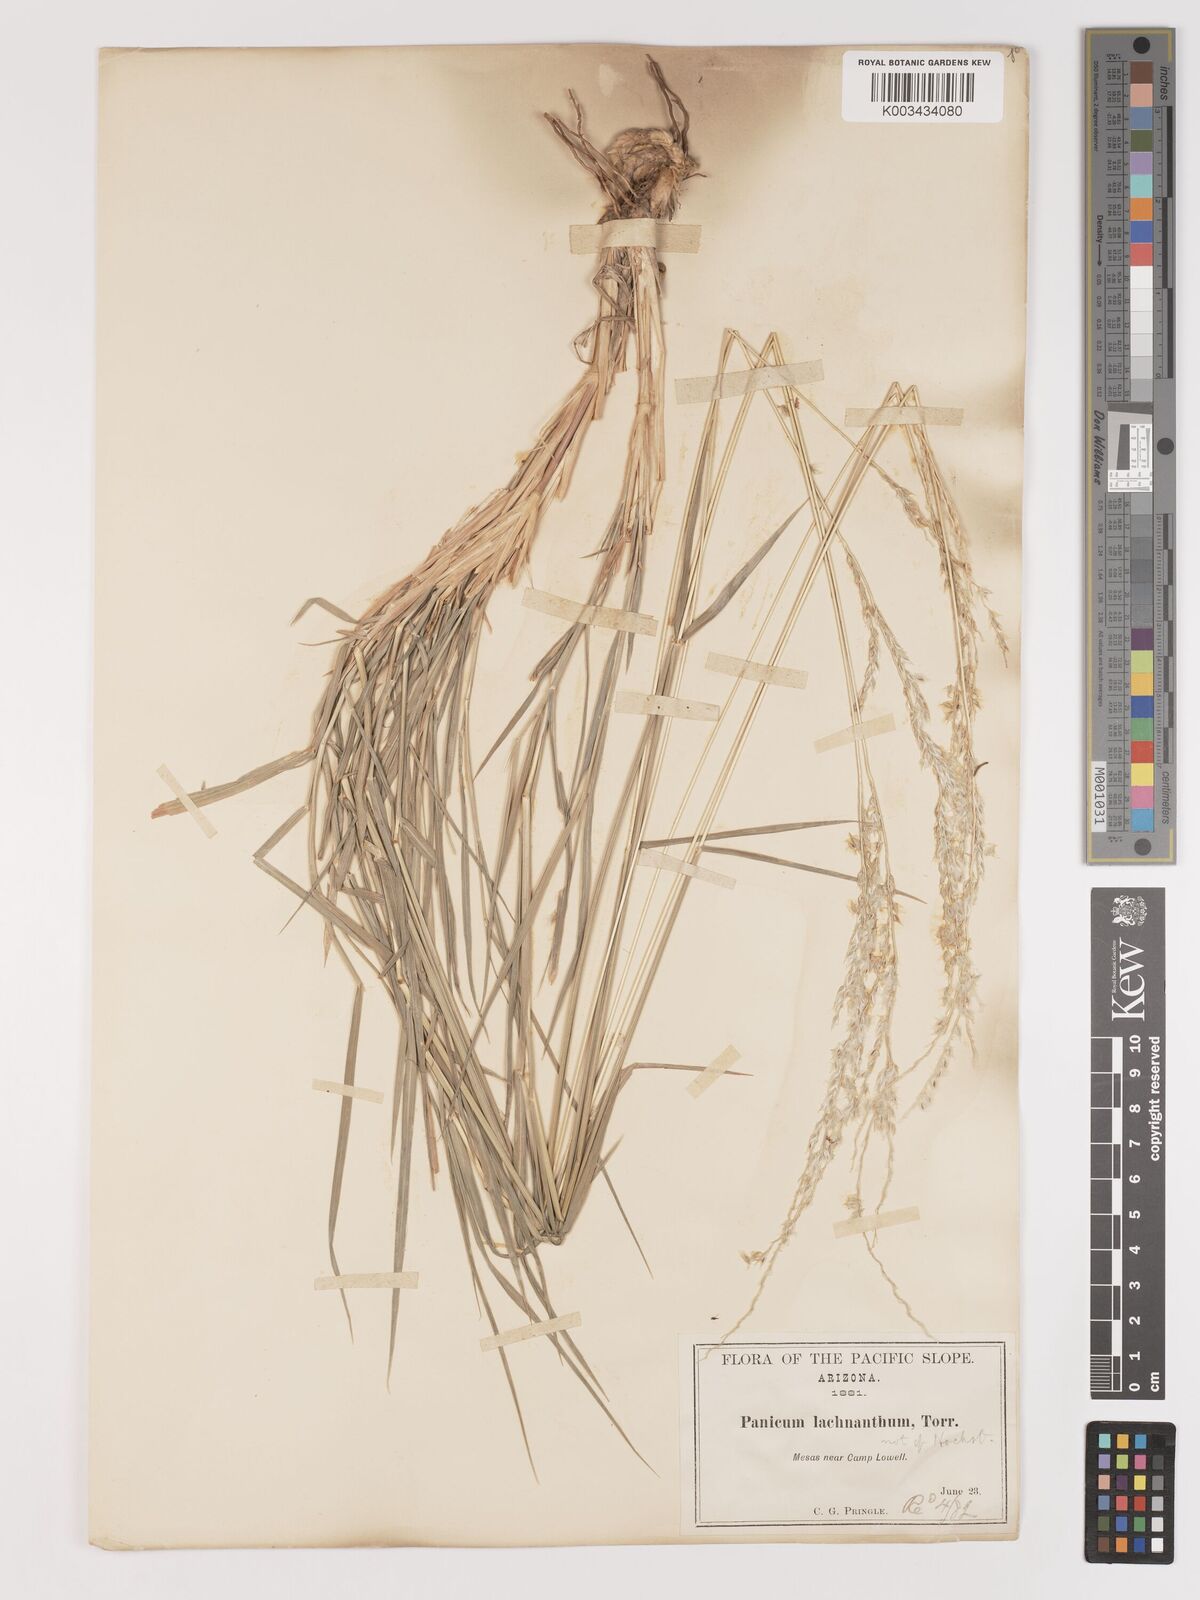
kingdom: Plantae
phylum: Tracheophyta
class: Liliopsida
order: Poales
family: Poaceae
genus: Digitaria
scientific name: Digitaria californica
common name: Arizona cottontop
